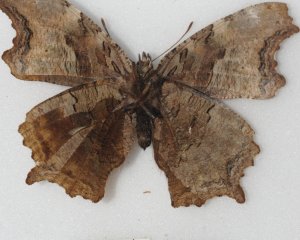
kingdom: Animalia
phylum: Arthropoda
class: Insecta
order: Lepidoptera
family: Nymphalidae
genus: Polygonia
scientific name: Polygonia vaualbum
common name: Compton Tortoiseshell
